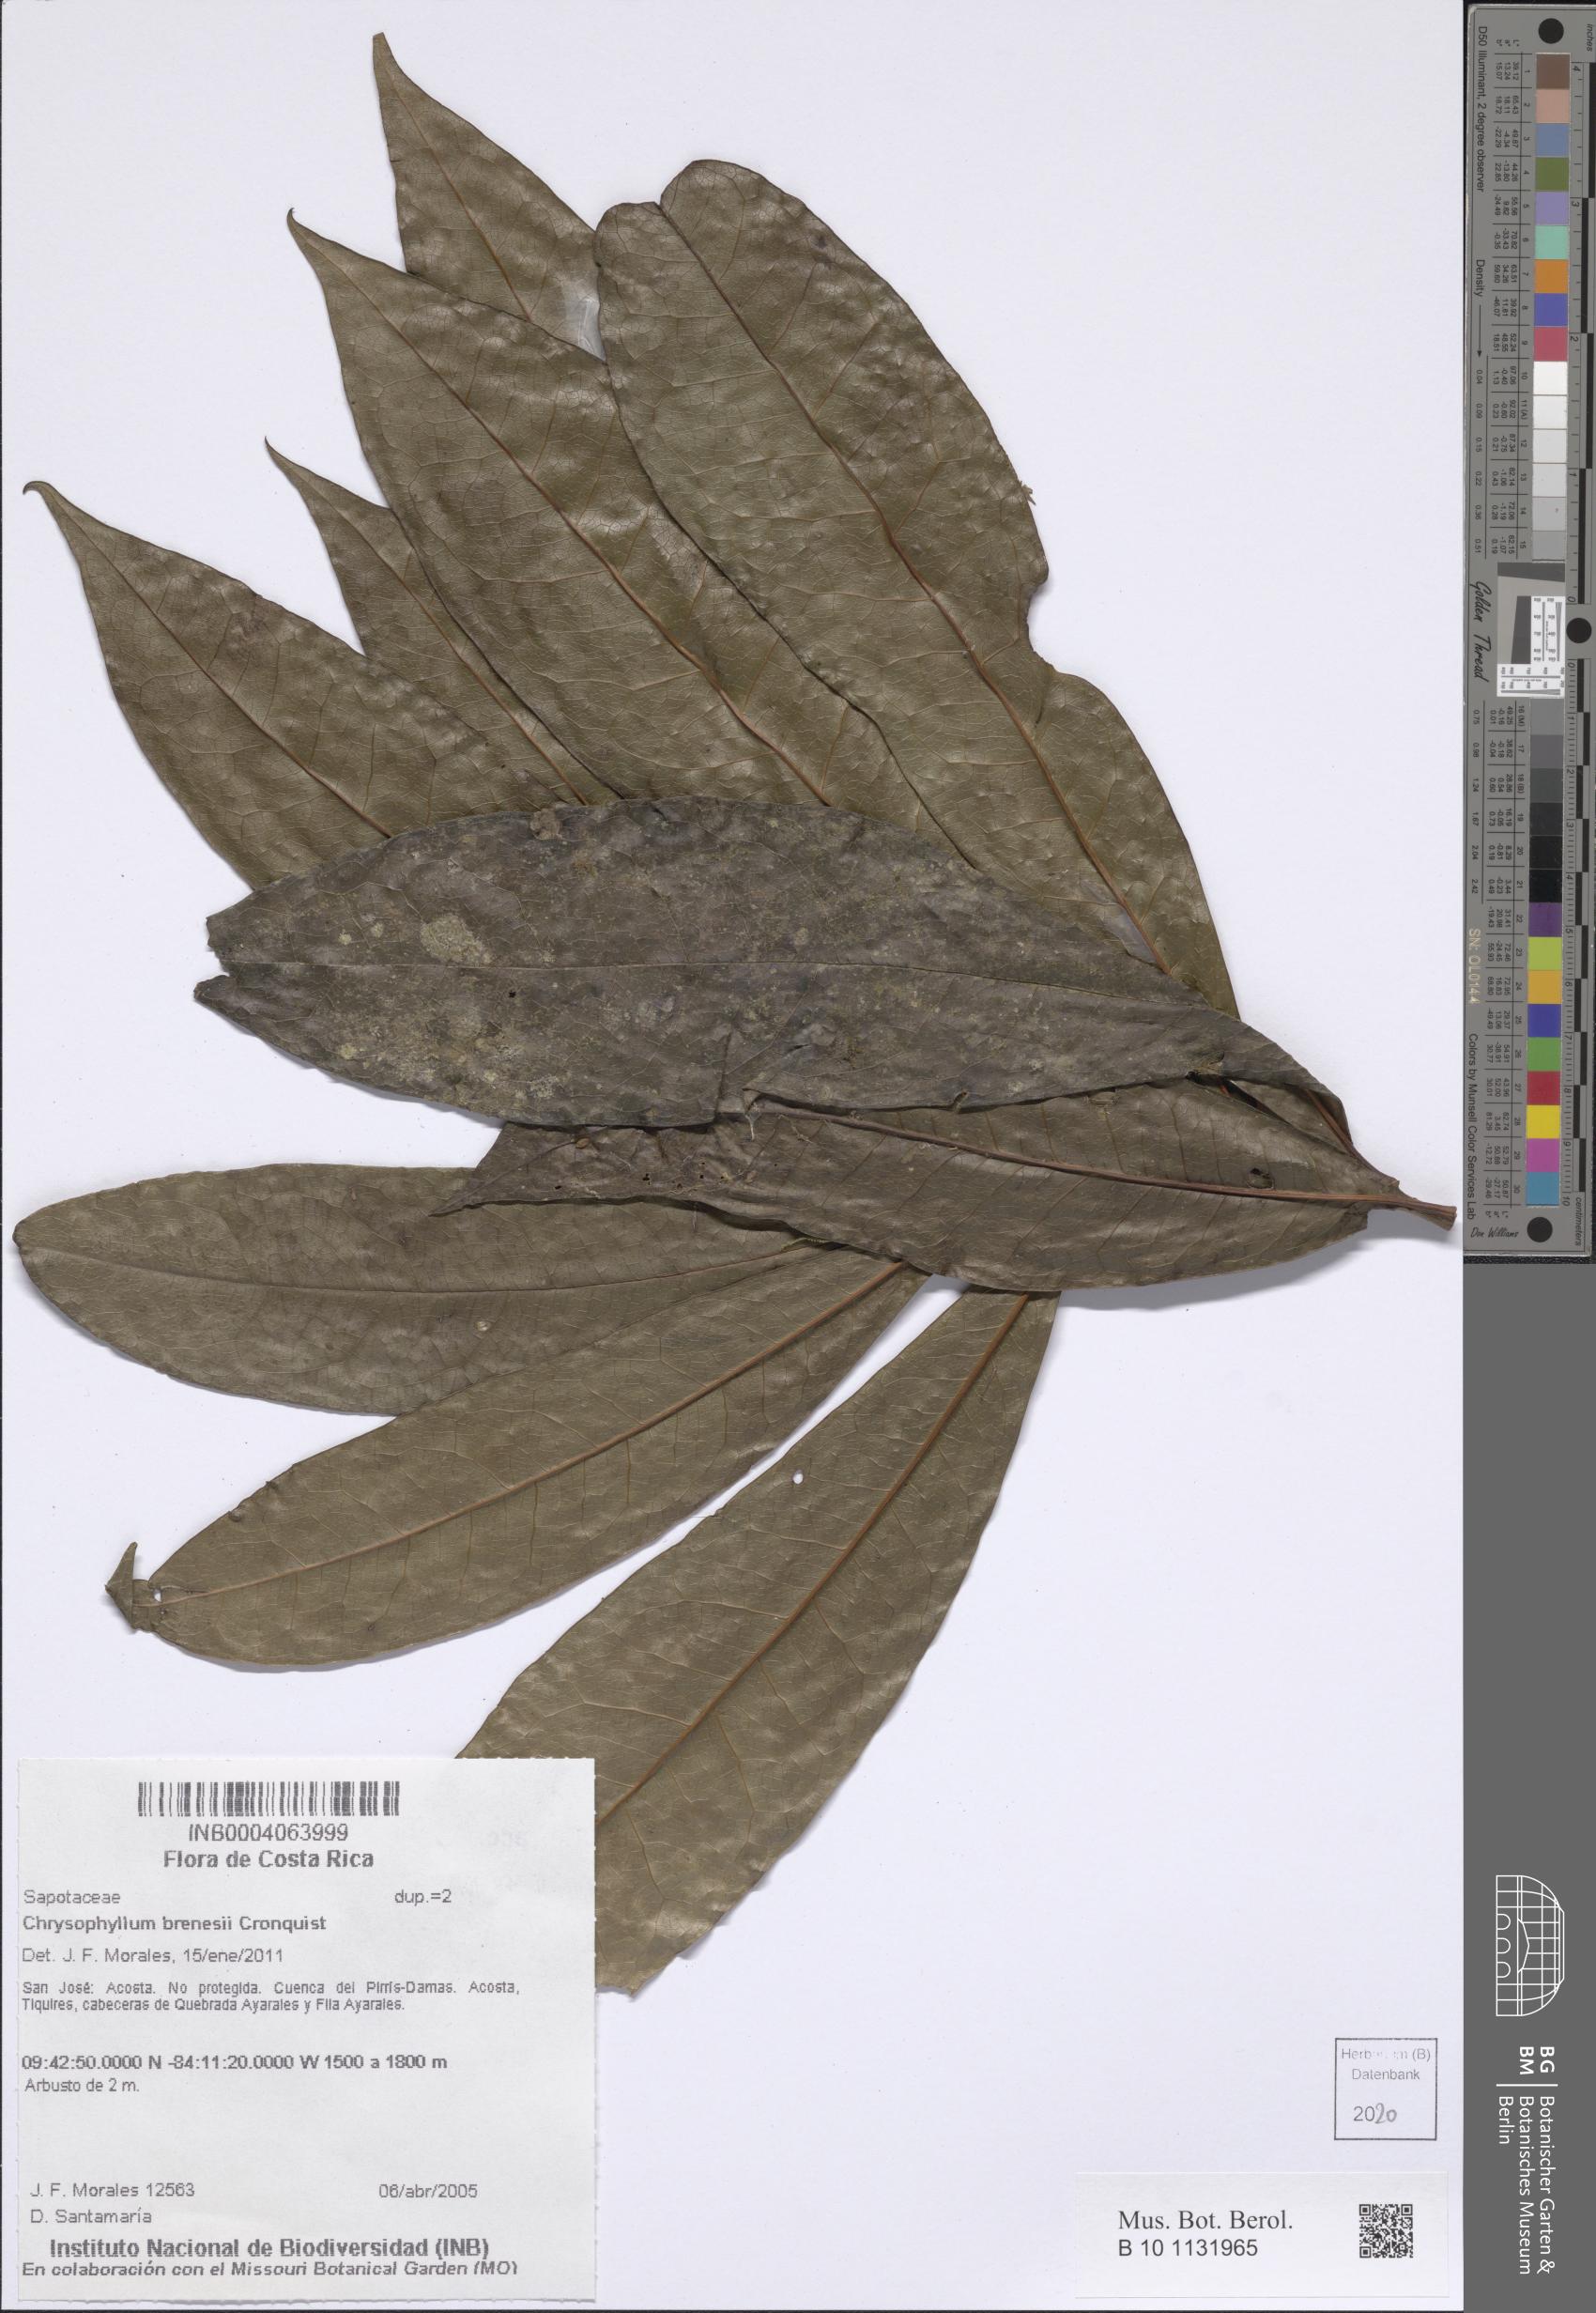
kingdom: Plantae
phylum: Tracheophyta
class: Magnoliopsida
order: Ericales
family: Sapotaceae
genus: Chrysophyllum
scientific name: Chrysophyllum brenesii
